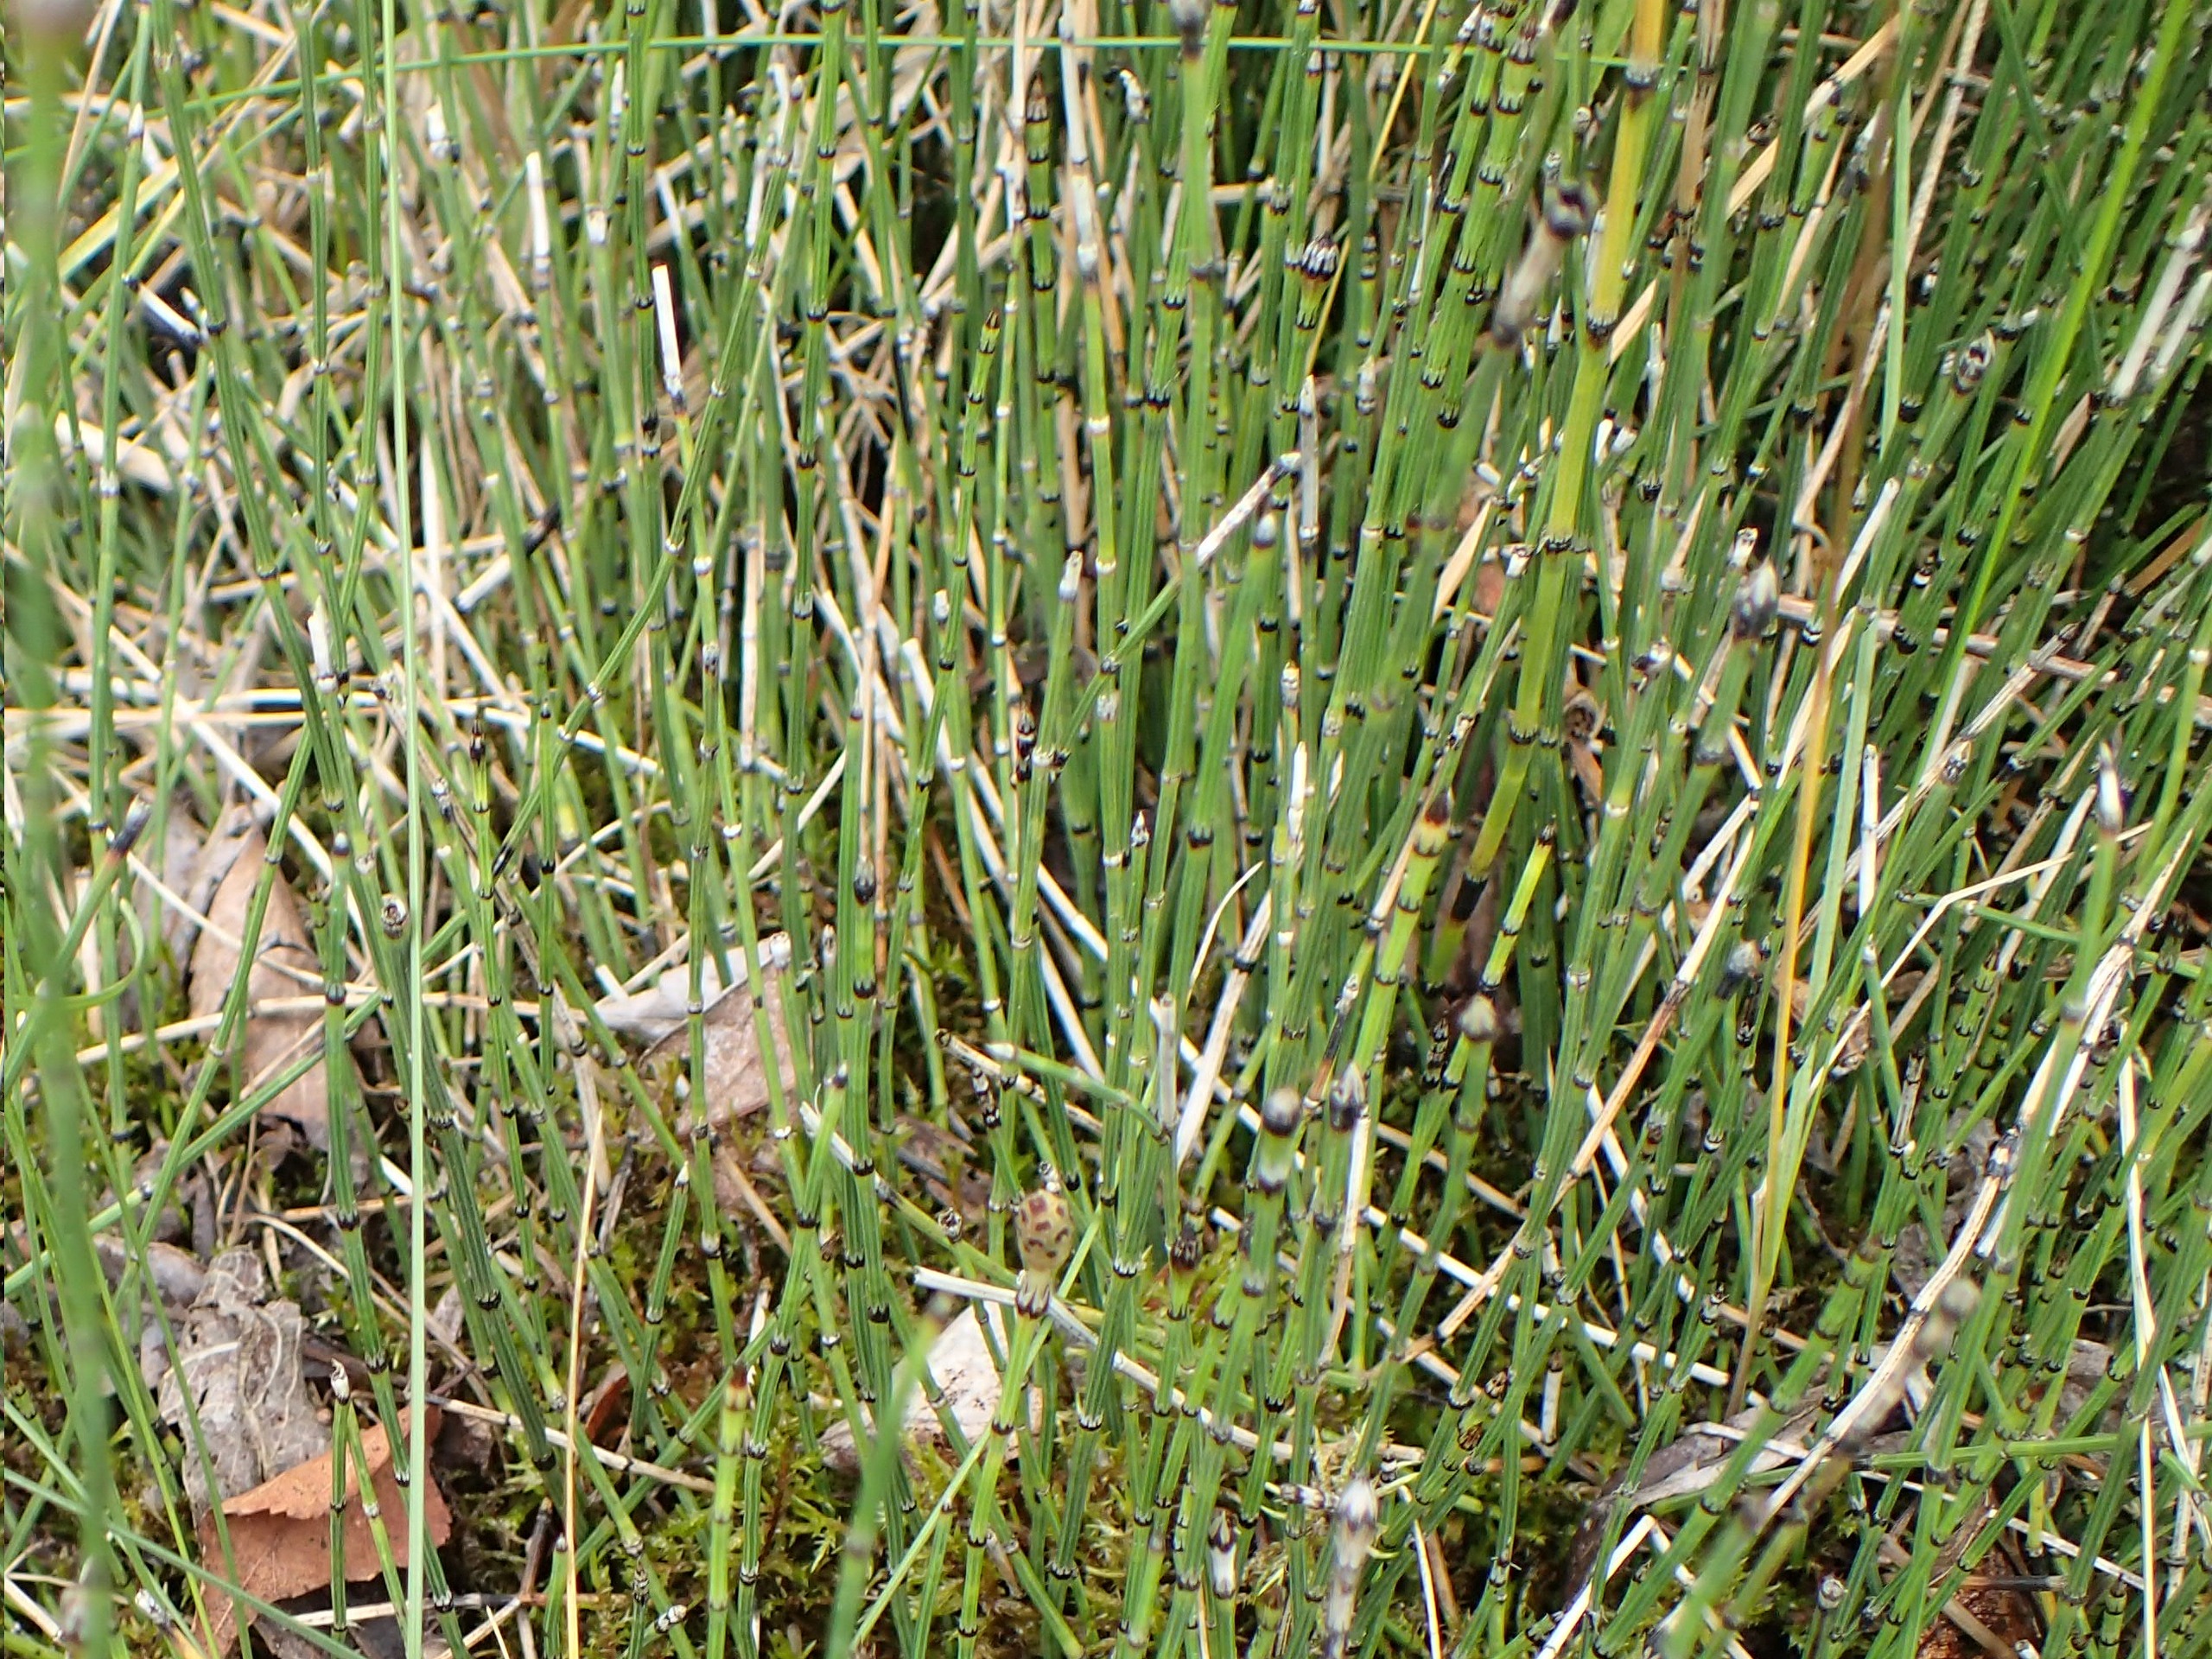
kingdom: Plantae
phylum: Tracheophyta
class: Polypodiopsida
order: Equisetales
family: Equisetaceae
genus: Equisetum
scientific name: Equisetum variegatum
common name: Liden padderok
